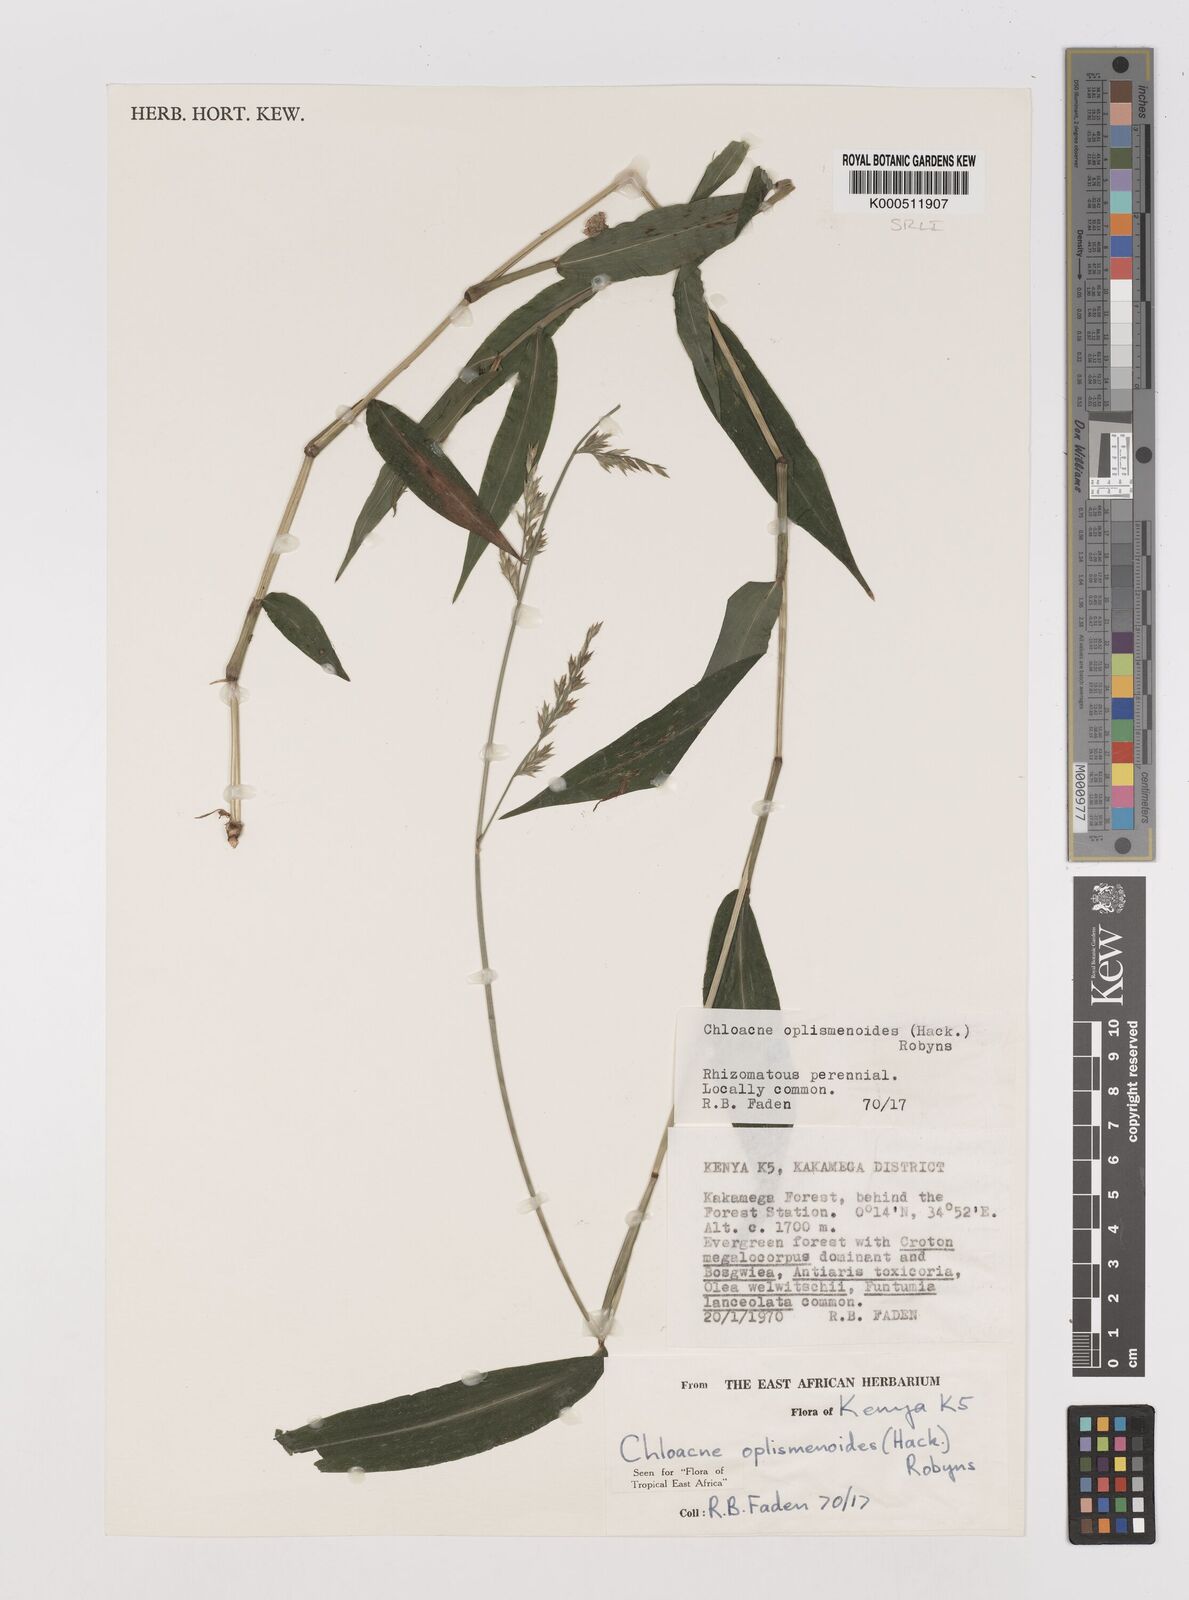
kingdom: Plantae
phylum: Tracheophyta
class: Liliopsida
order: Poales
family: Poaceae
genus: Poecilostachys
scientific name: Poecilostachys oplismenoides
